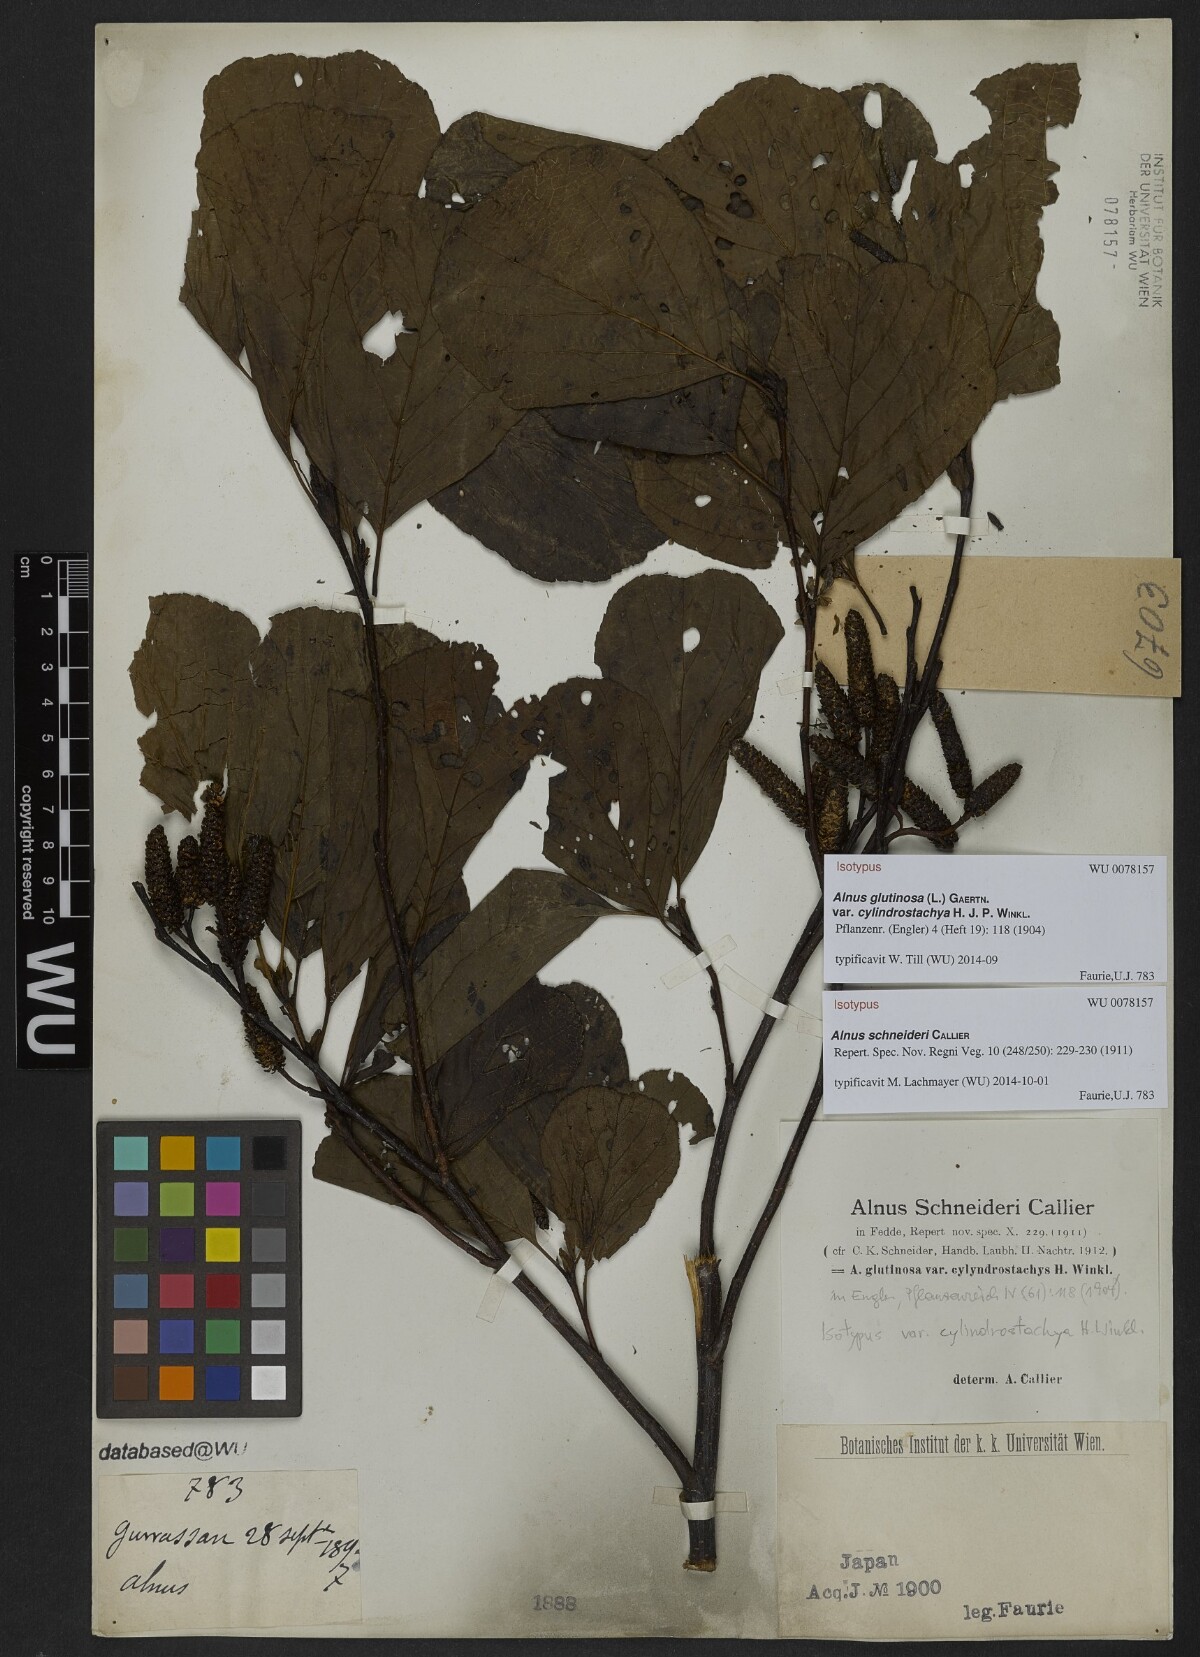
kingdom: Plantae
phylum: Tracheophyta
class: Magnoliopsida
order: Fagales
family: Betulaceae
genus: Alnus
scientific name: Alnus fauriei
